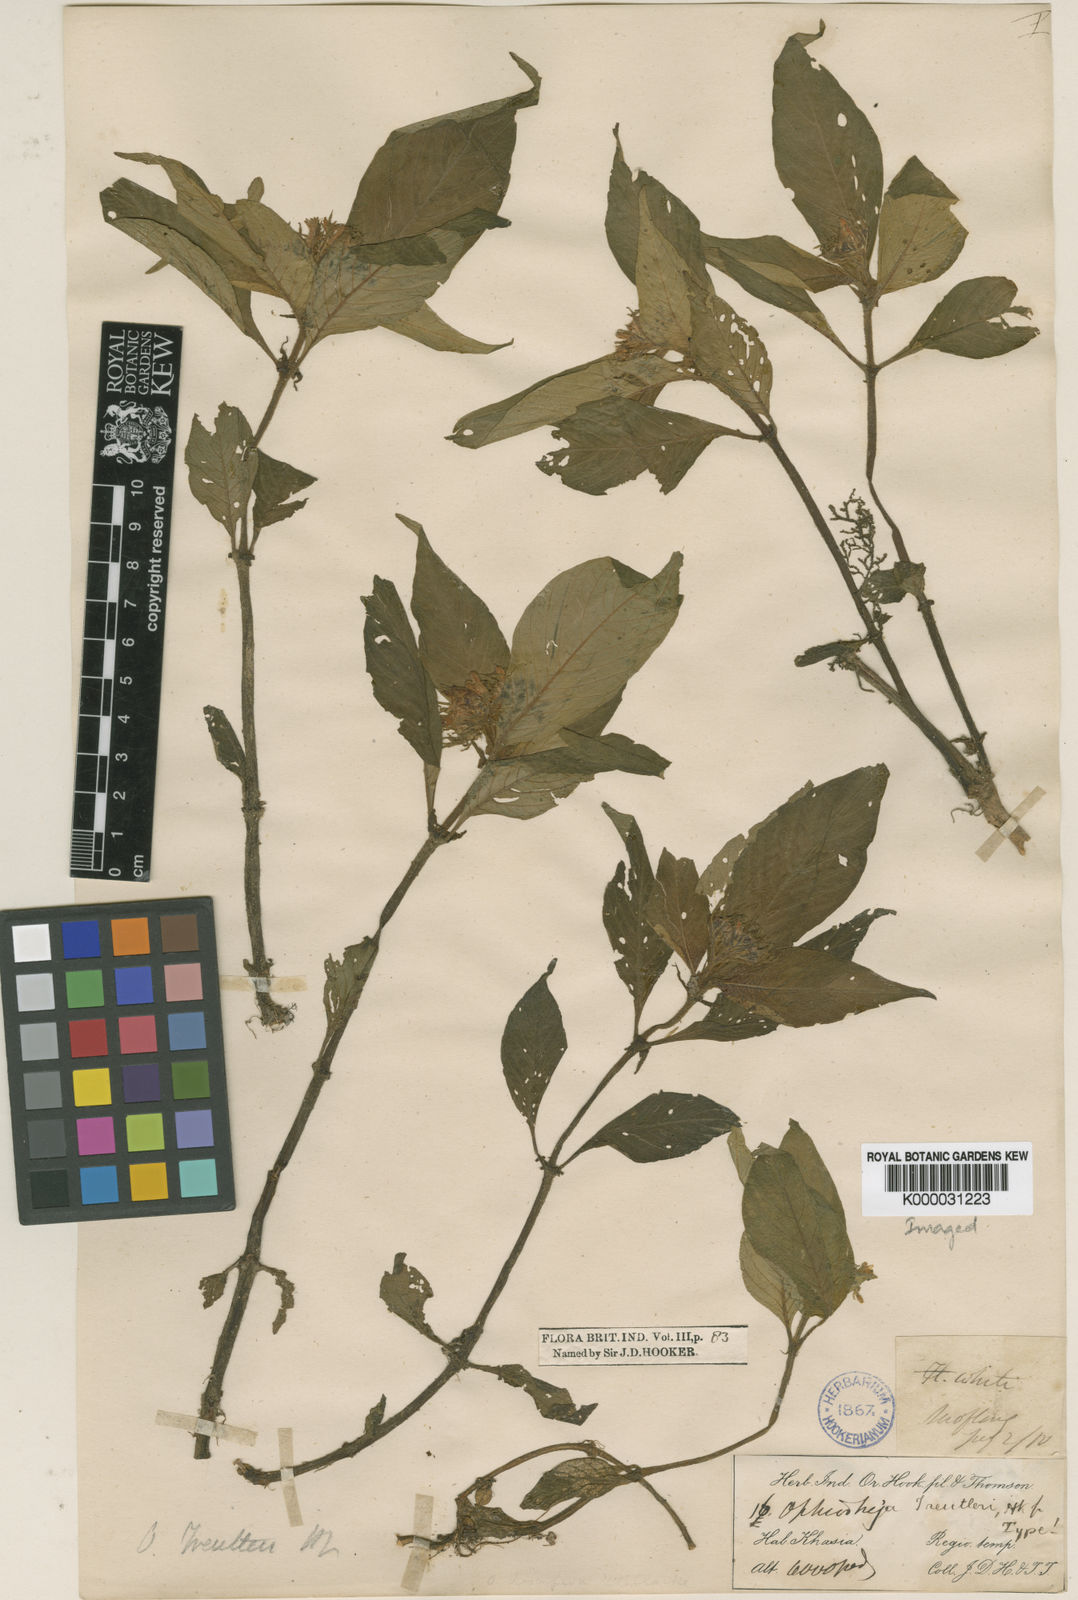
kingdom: Plantae
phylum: Tracheophyta
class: Magnoliopsida
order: Gentianales
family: Rubiaceae
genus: Ophiorrhiza
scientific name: Ophiorrhiza treutleri
